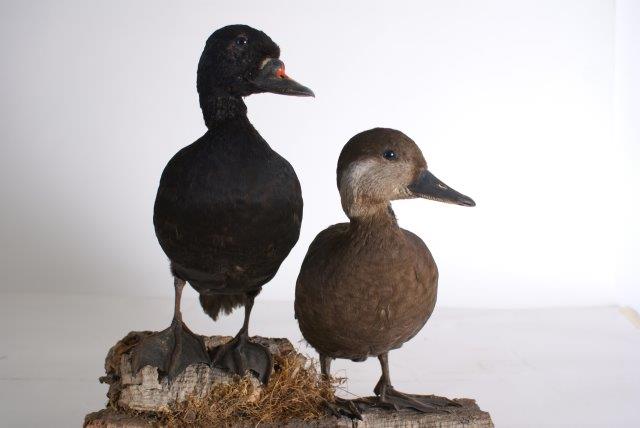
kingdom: Animalia
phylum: Chordata
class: Aves
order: Anseriformes
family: Anatidae
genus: Melanitta
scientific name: Melanitta nigra
